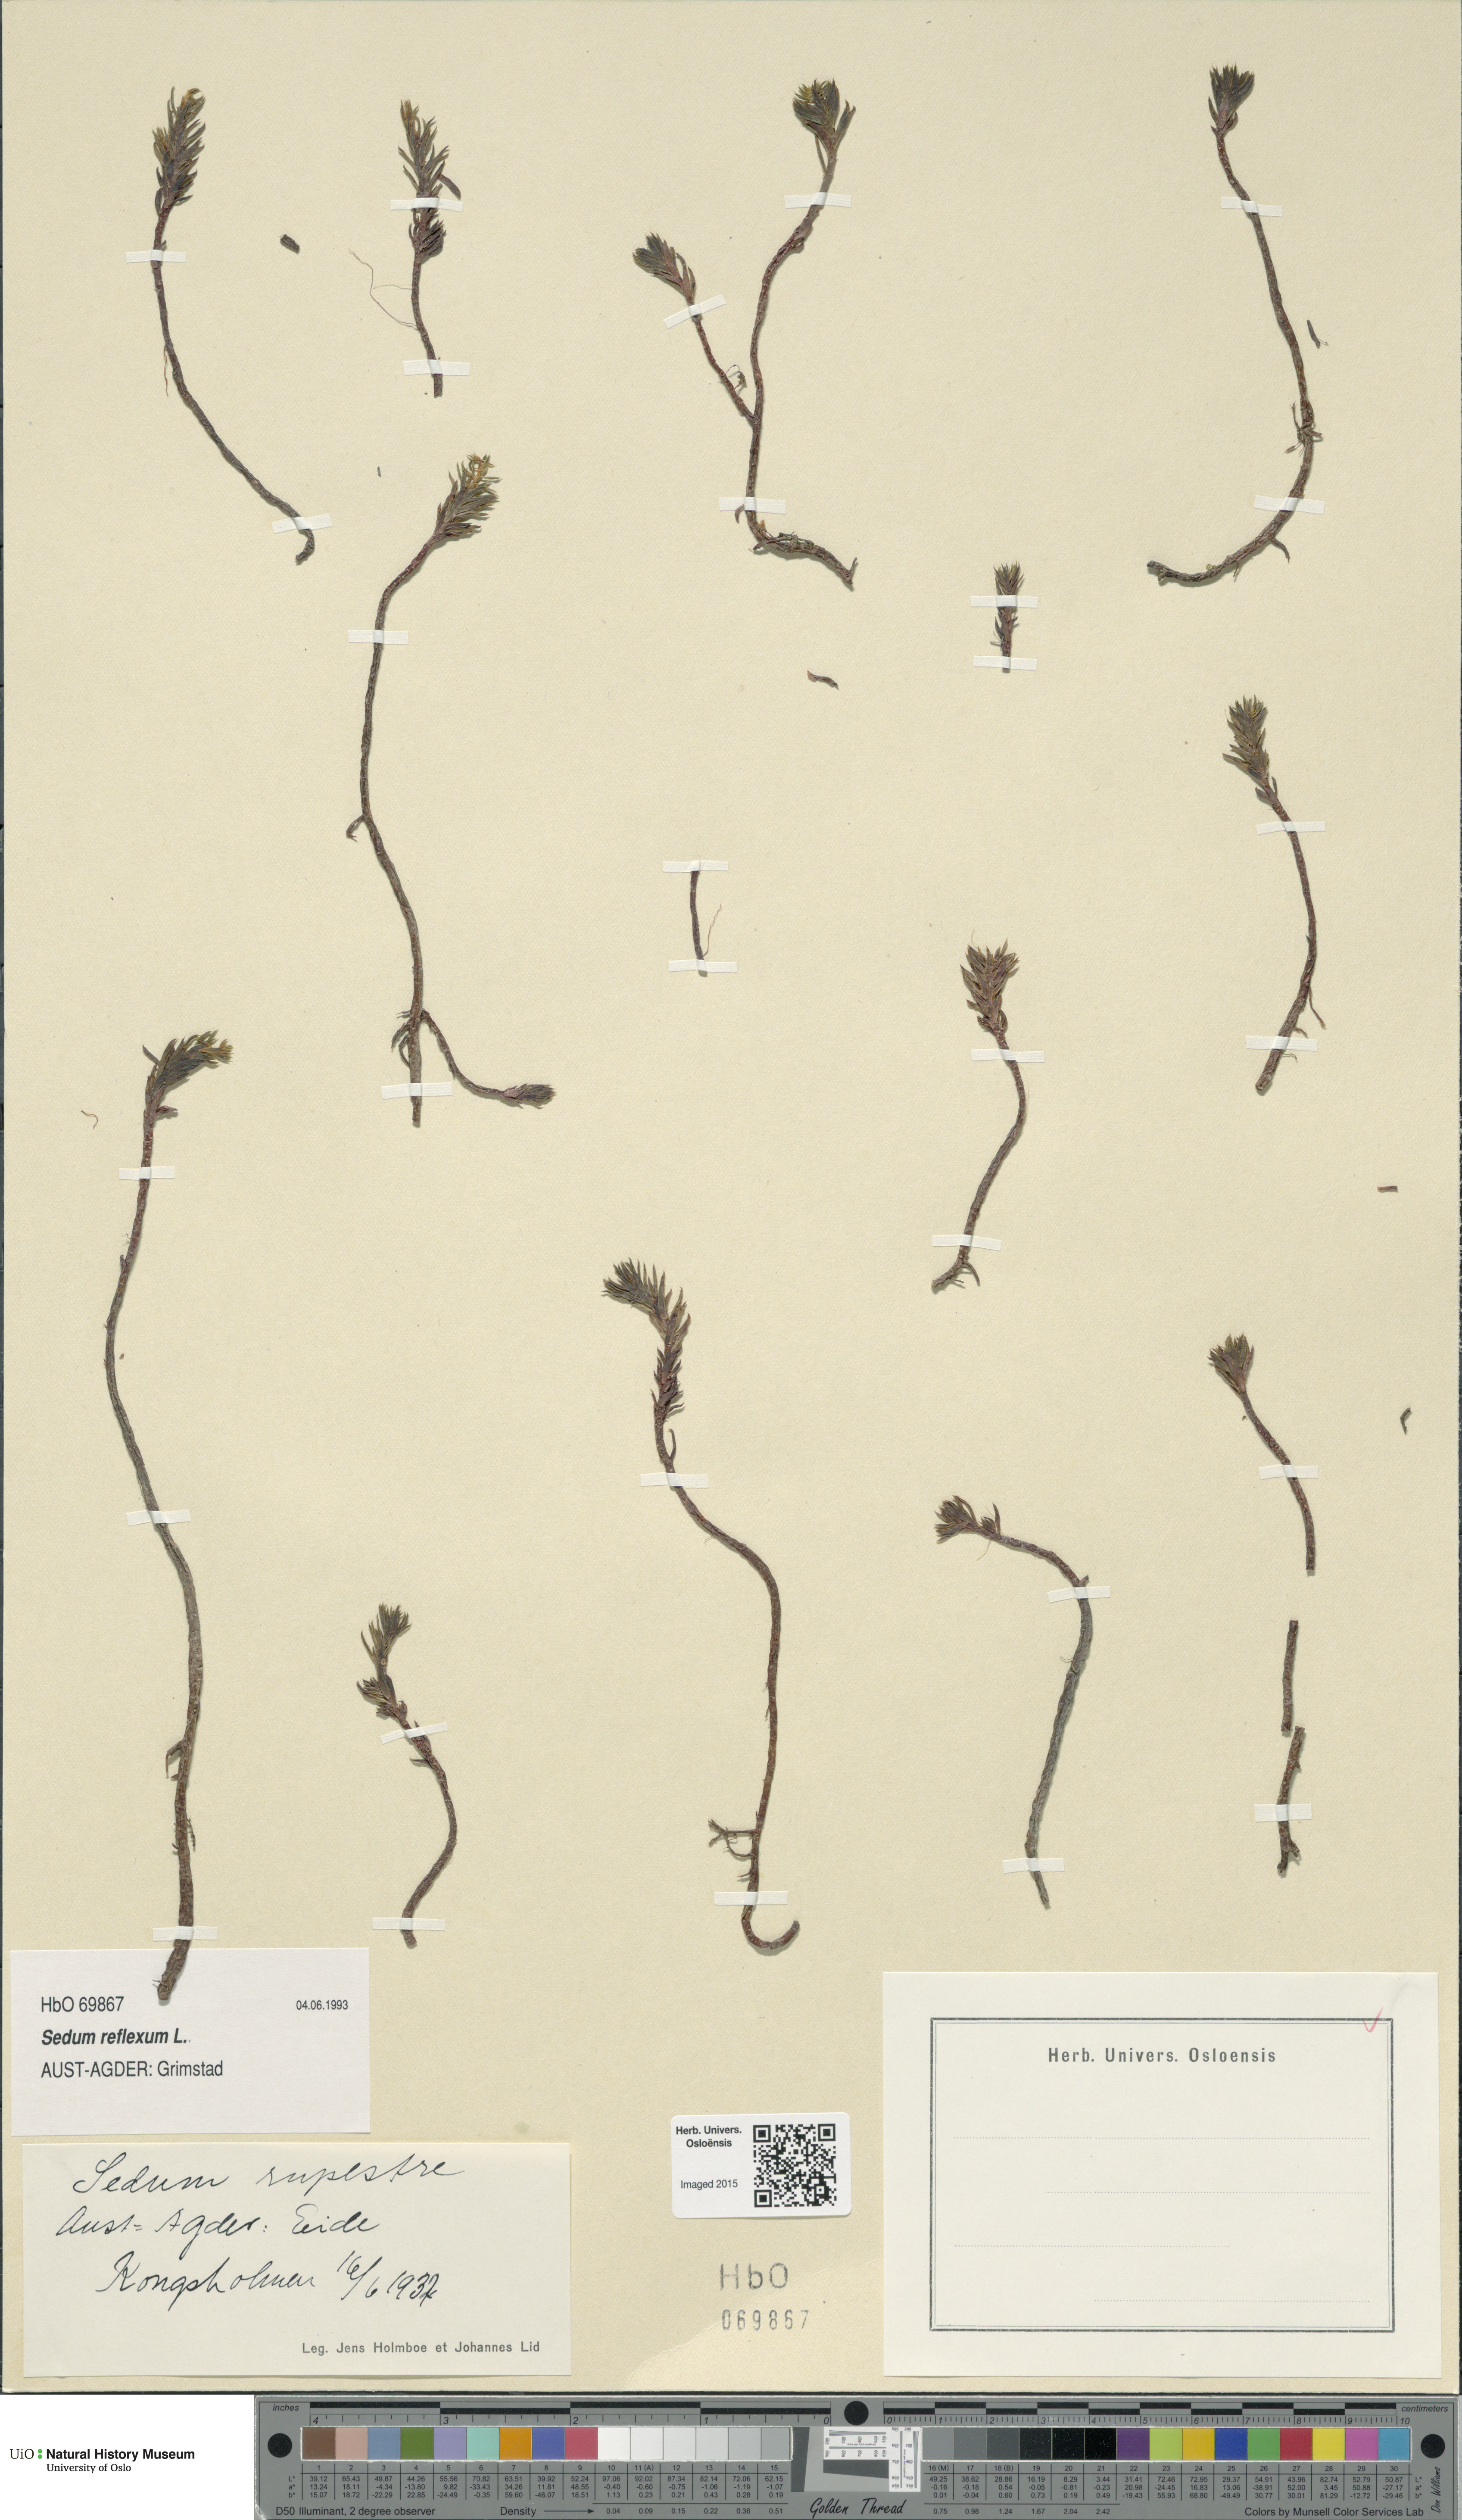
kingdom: Plantae
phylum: Tracheophyta
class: Magnoliopsida
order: Saxifragales
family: Crassulaceae
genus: Petrosedum
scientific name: Petrosedum rupestre
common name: Jenny's stonecrop
